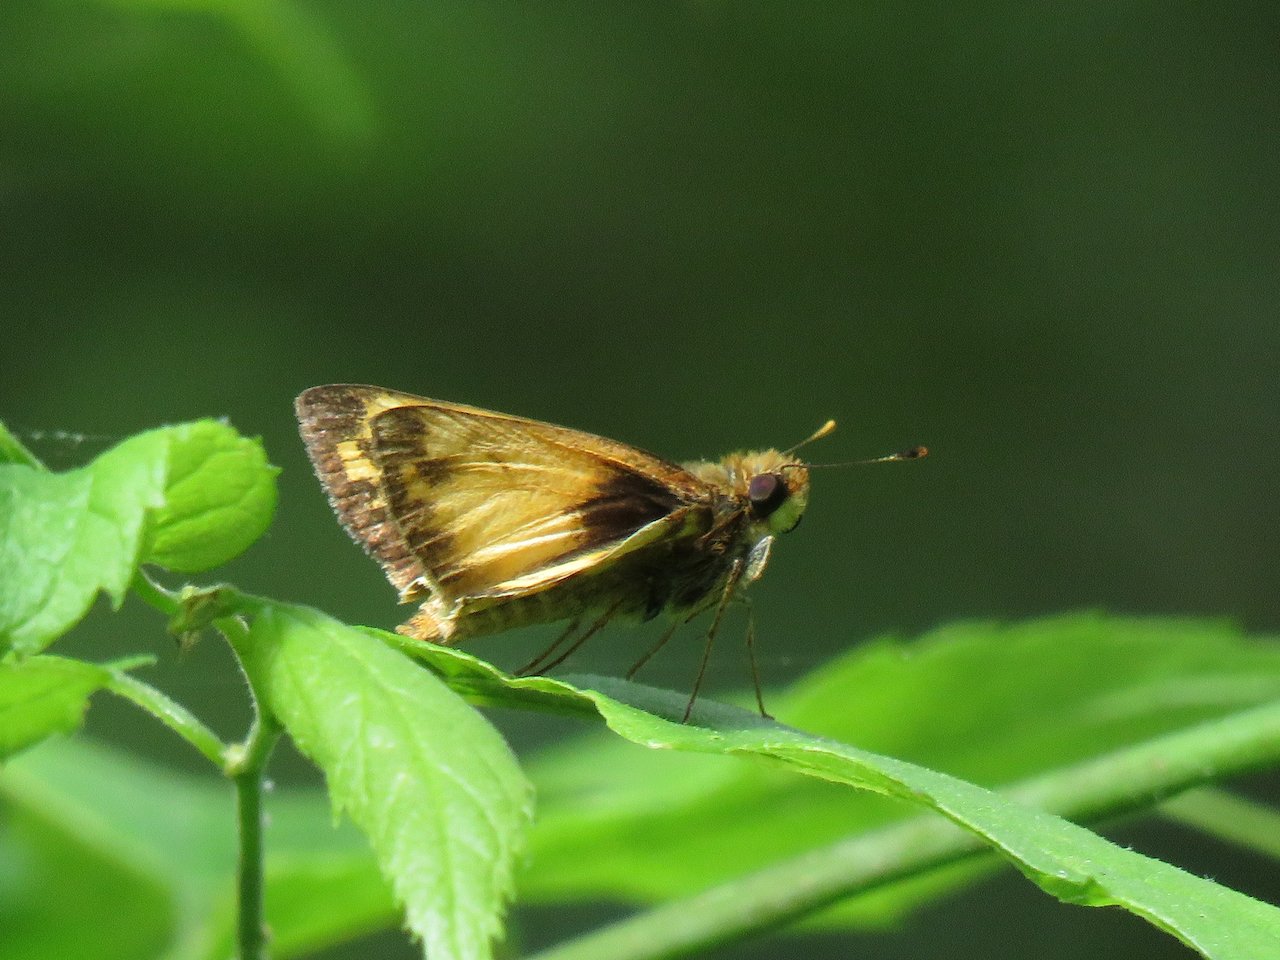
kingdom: Animalia
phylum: Arthropoda
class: Insecta
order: Lepidoptera
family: Hesperiidae
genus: Lon
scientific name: Lon zabulon
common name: Zabulon Skipper
